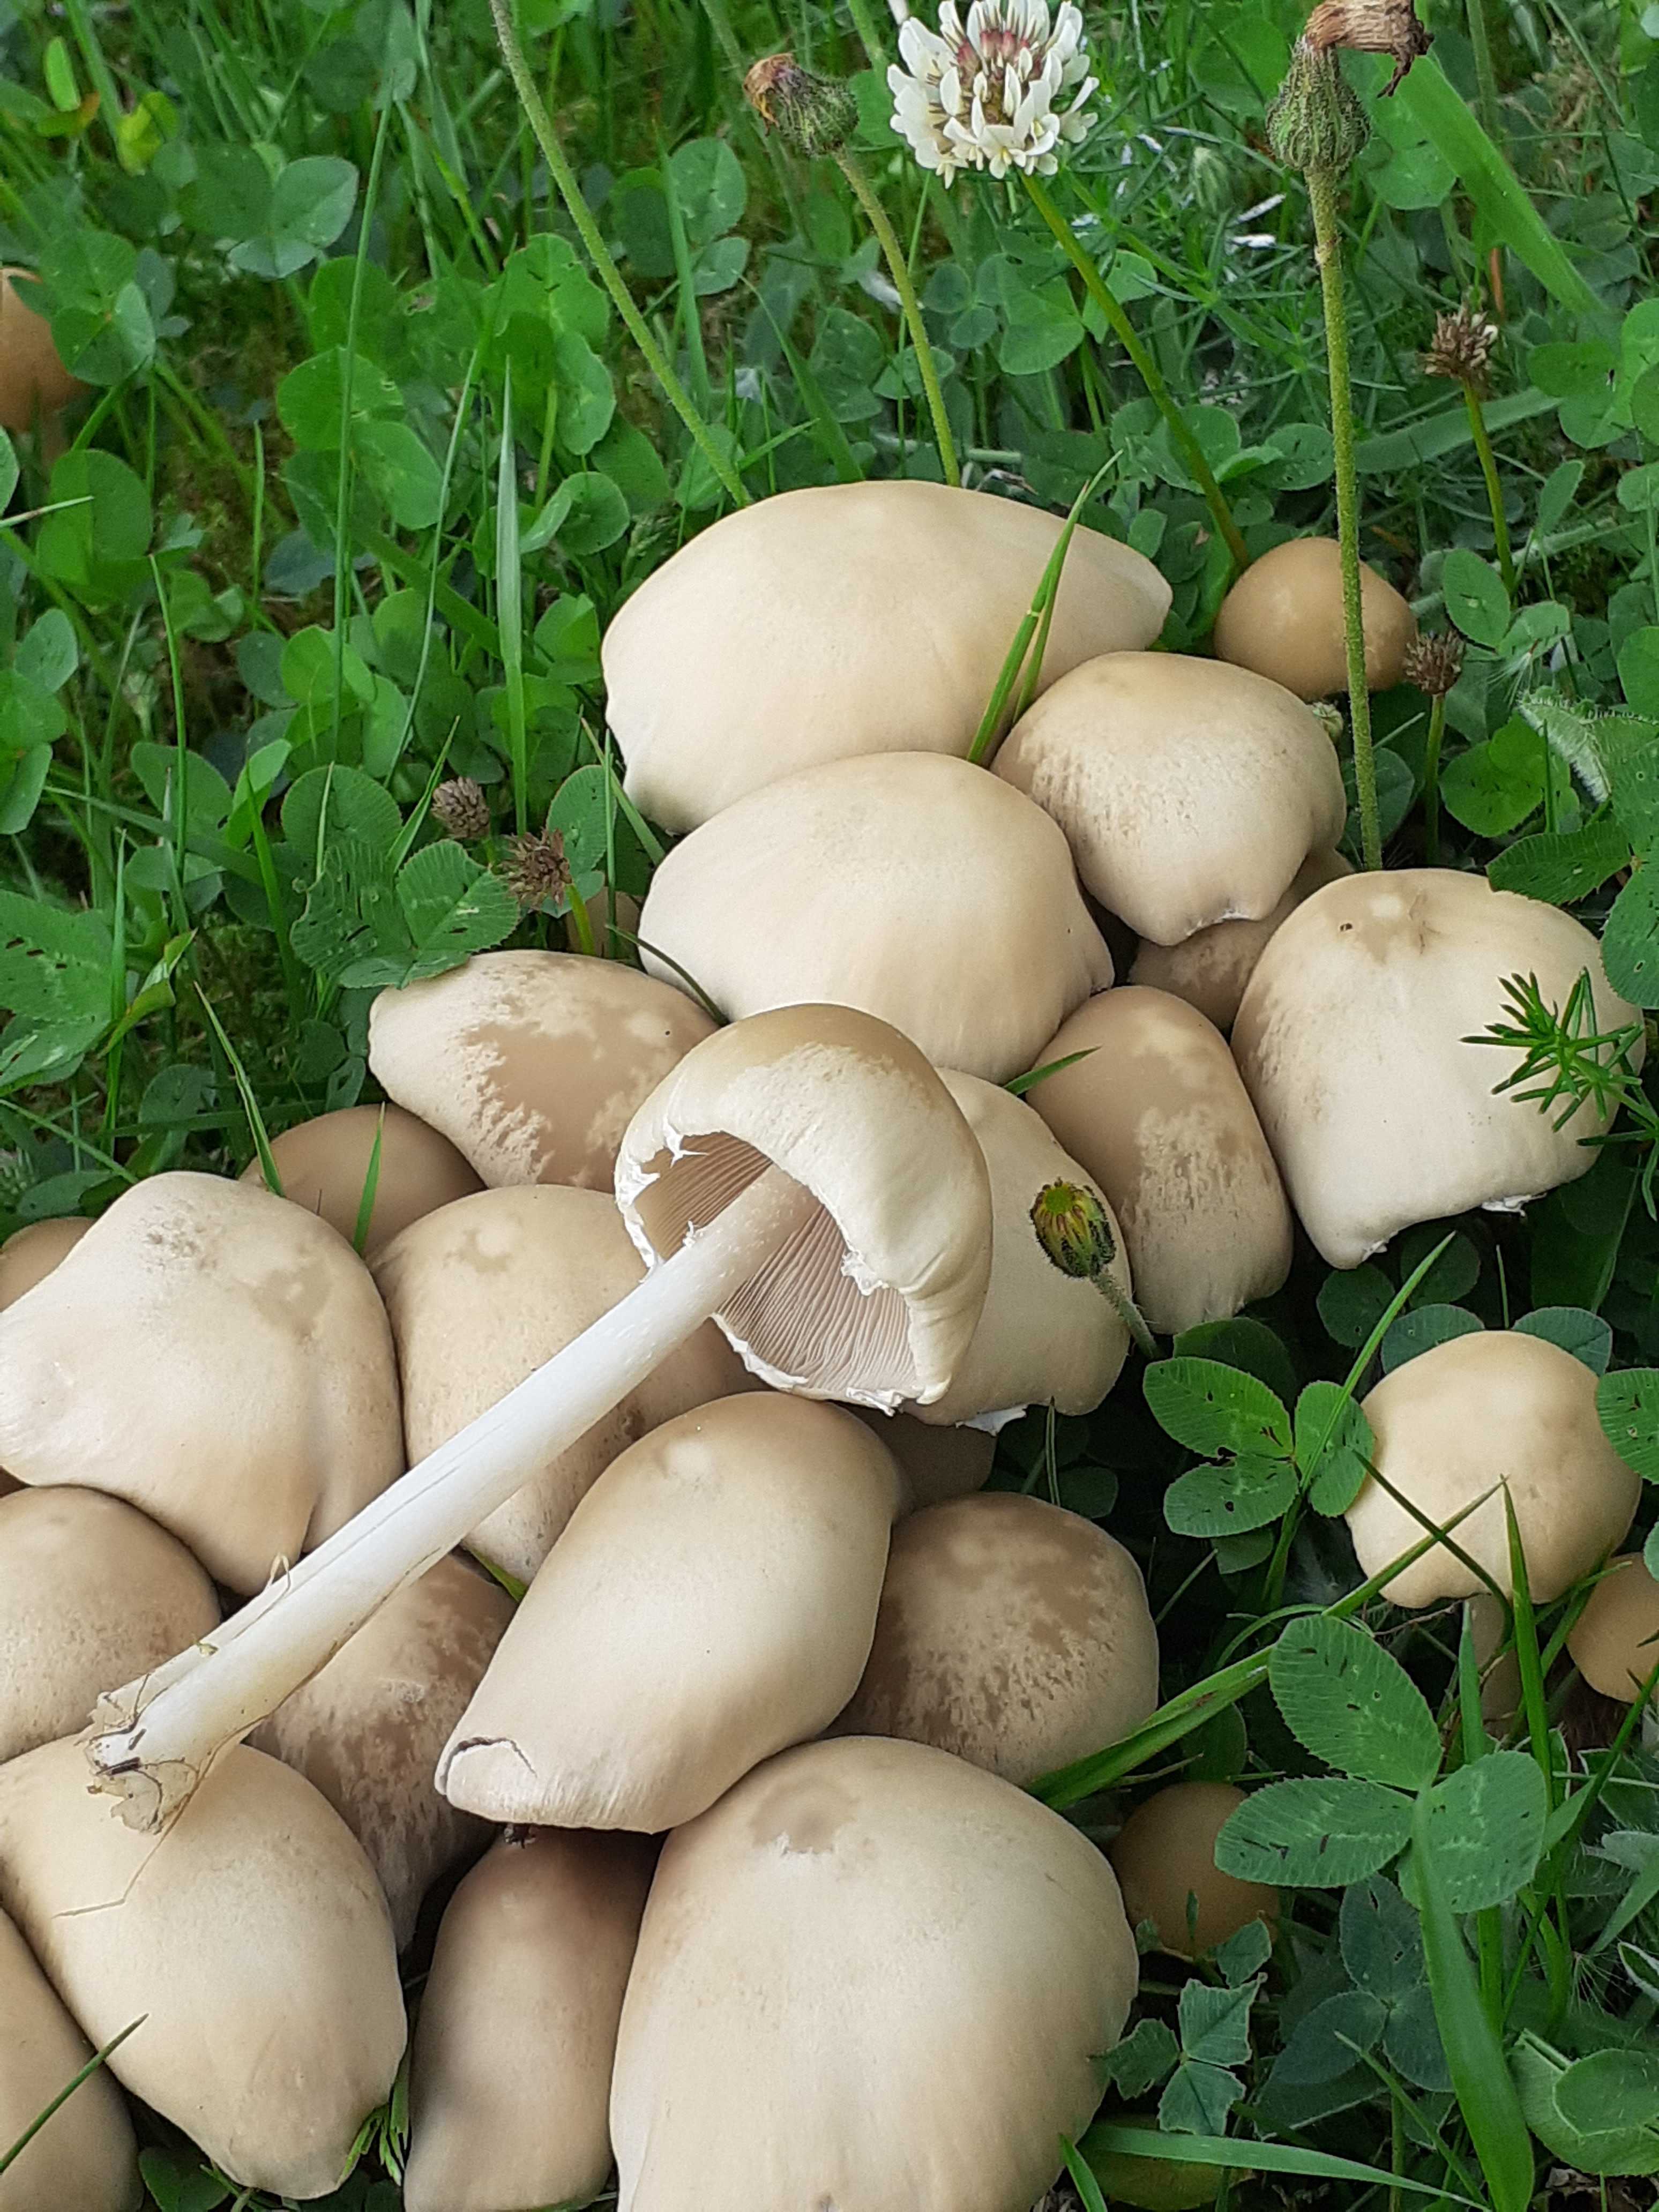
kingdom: Fungi
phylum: Basidiomycota
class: Agaricomycetes
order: Agaricales
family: Psathyrellaceae
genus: Candolleomyces
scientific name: Candolleomyces candolleanus
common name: Candolles mørkhat
